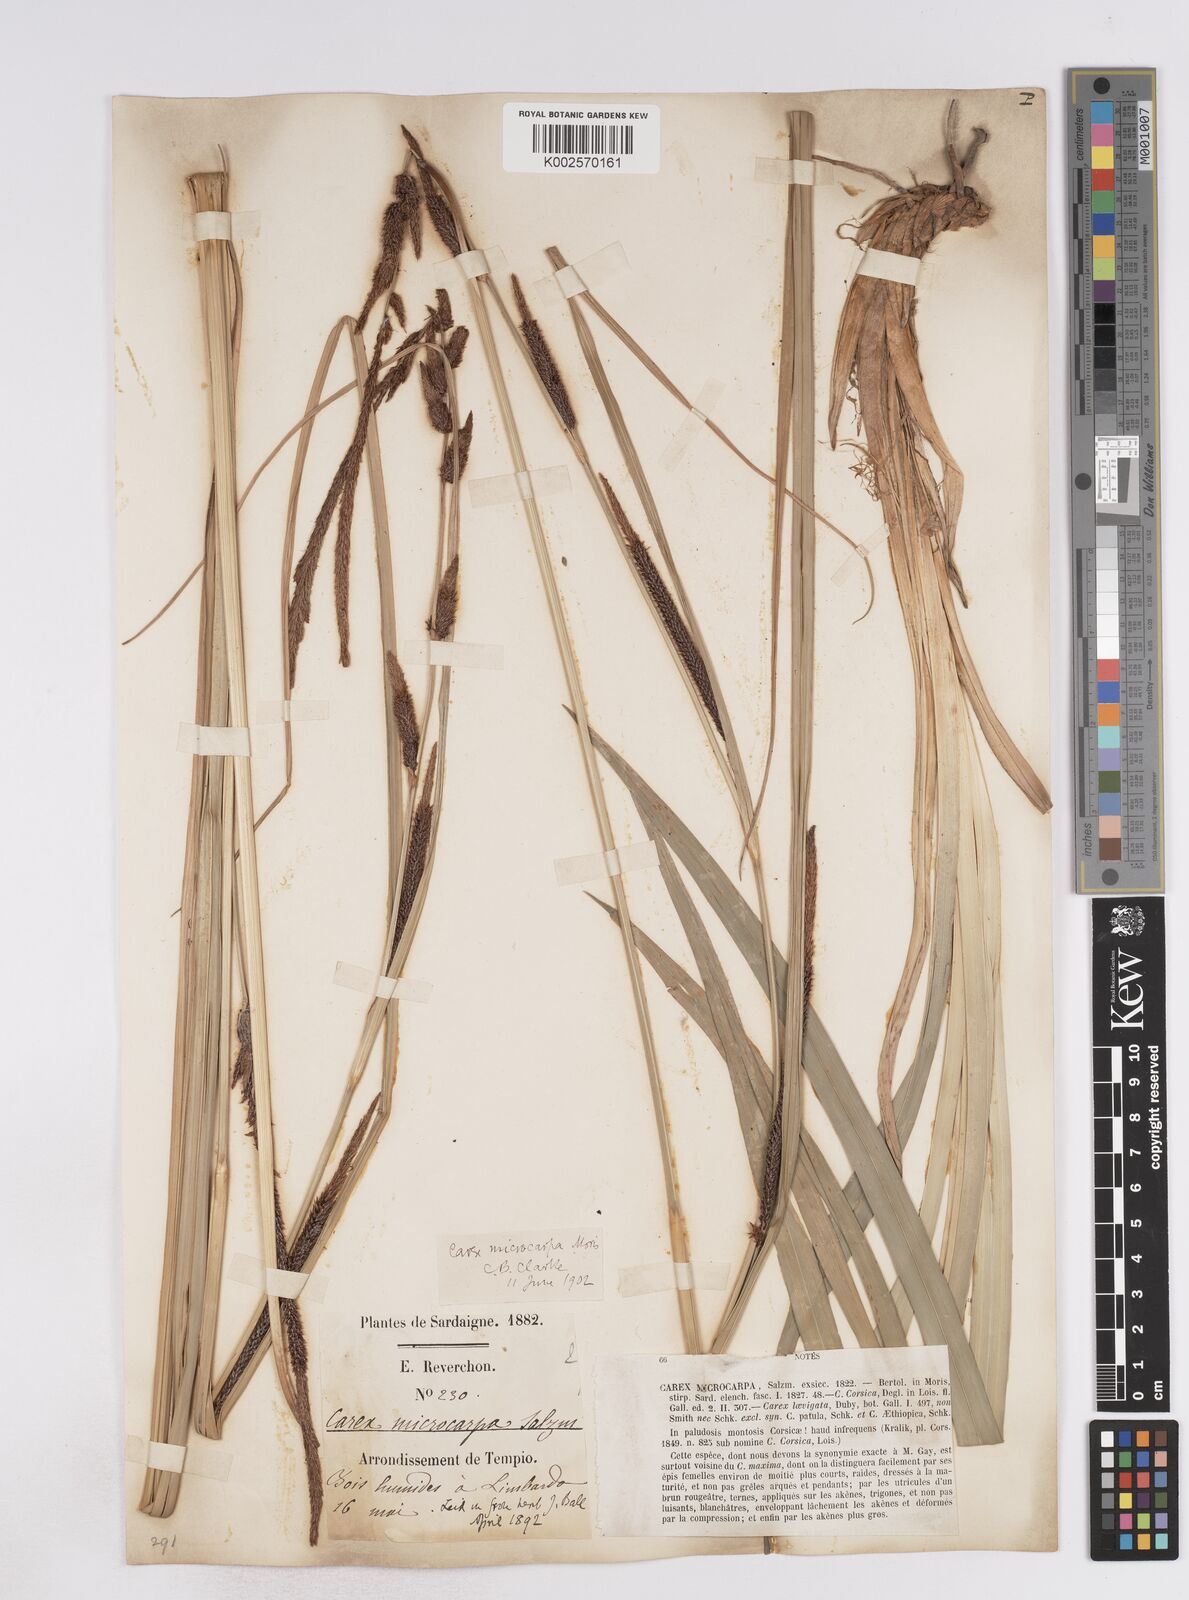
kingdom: Plantae
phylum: Tracheophyta
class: Liliopsida
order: Poales
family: Cyperaceae
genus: Carex
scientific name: Carex microcarpa
